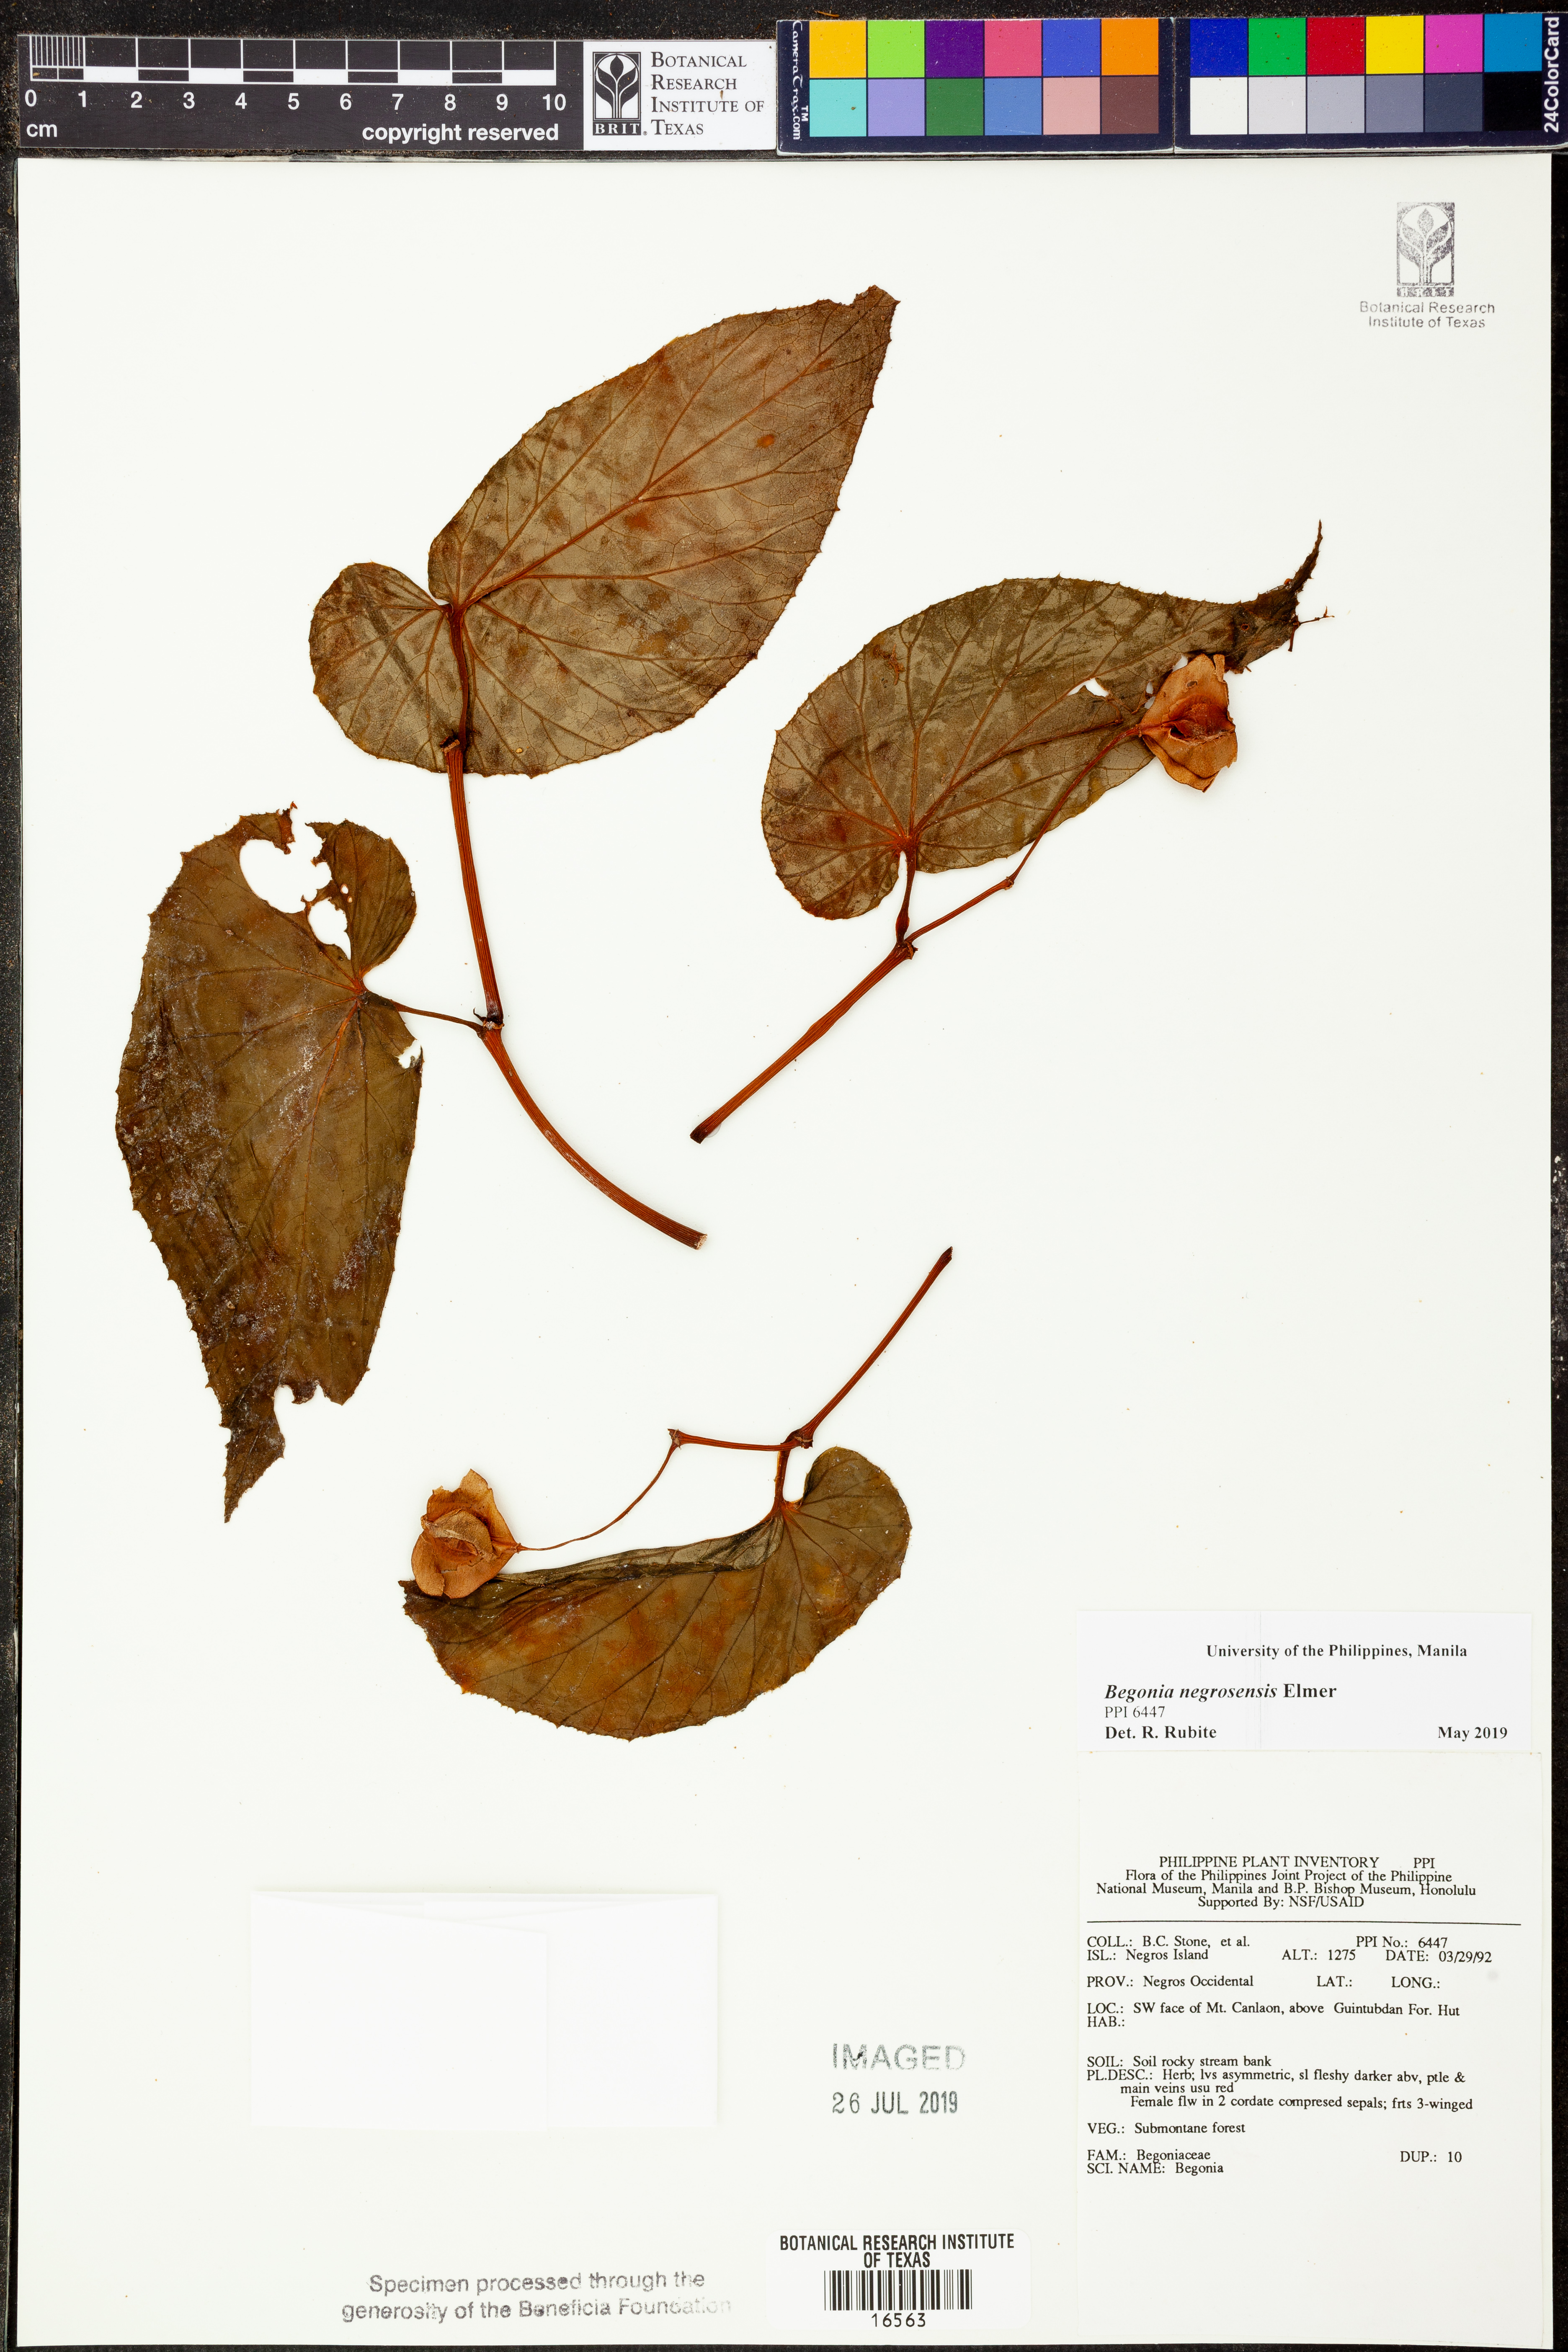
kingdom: Plantae
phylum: Tracheophyta
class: Magnoliopsida
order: Cucurbitales
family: Begoniaceae
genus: Begonia
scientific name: Begonia negrosensis
